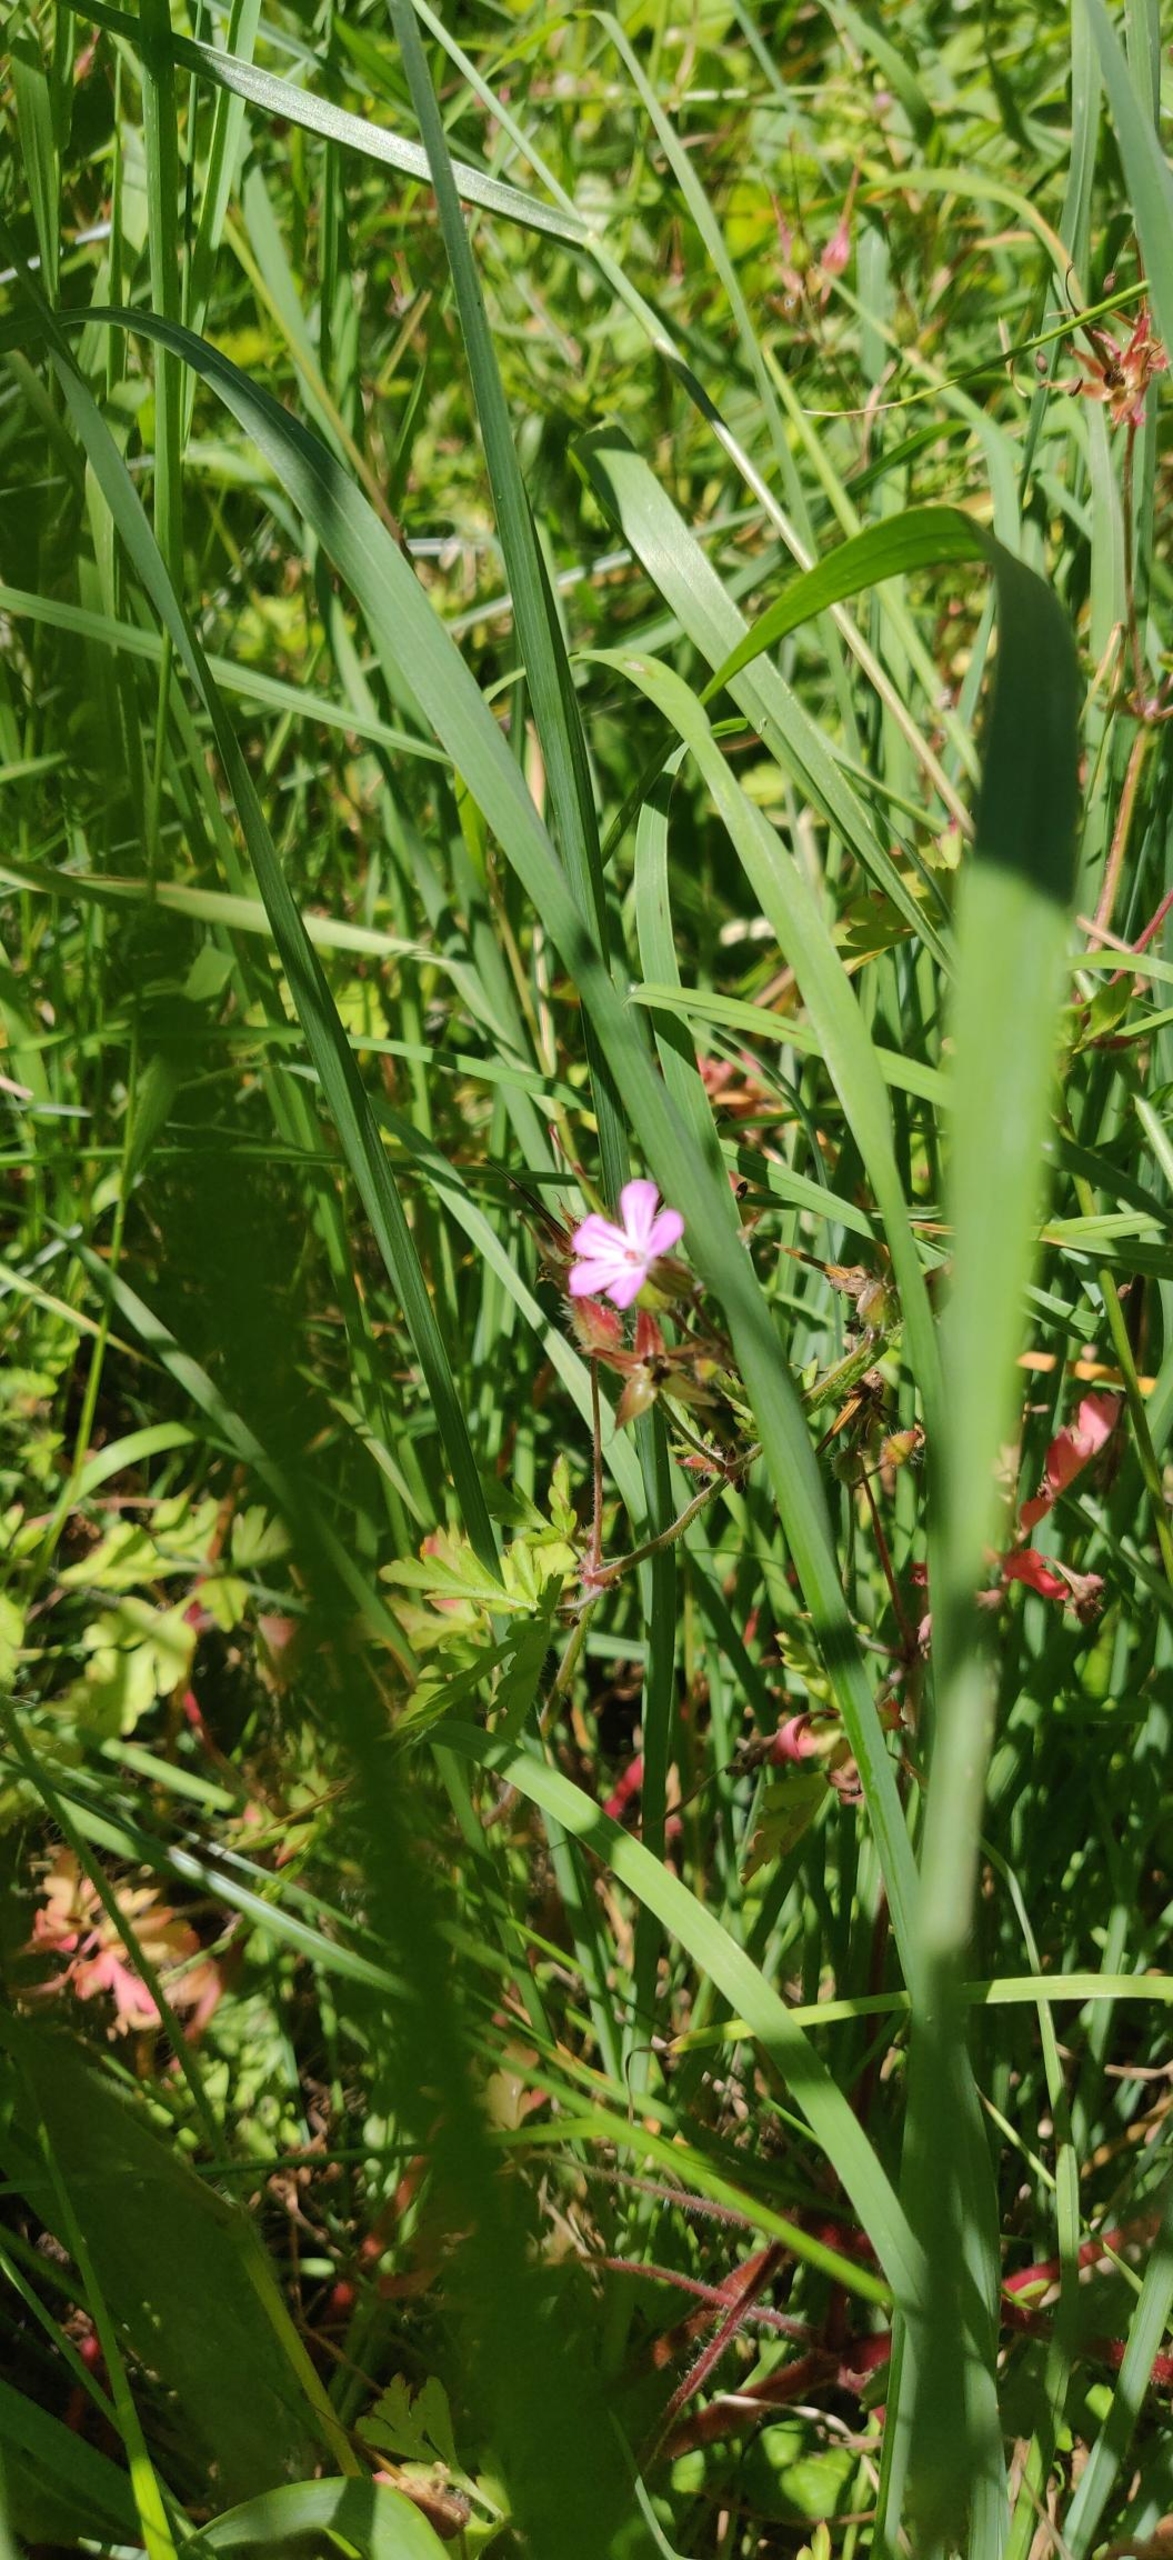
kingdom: Plantae
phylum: Tracheophyta
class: Magnoliopsida
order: Geraniales
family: Geraniaceae
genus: Geranium
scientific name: Geranium robertianum
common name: Stinkende storkenæb
